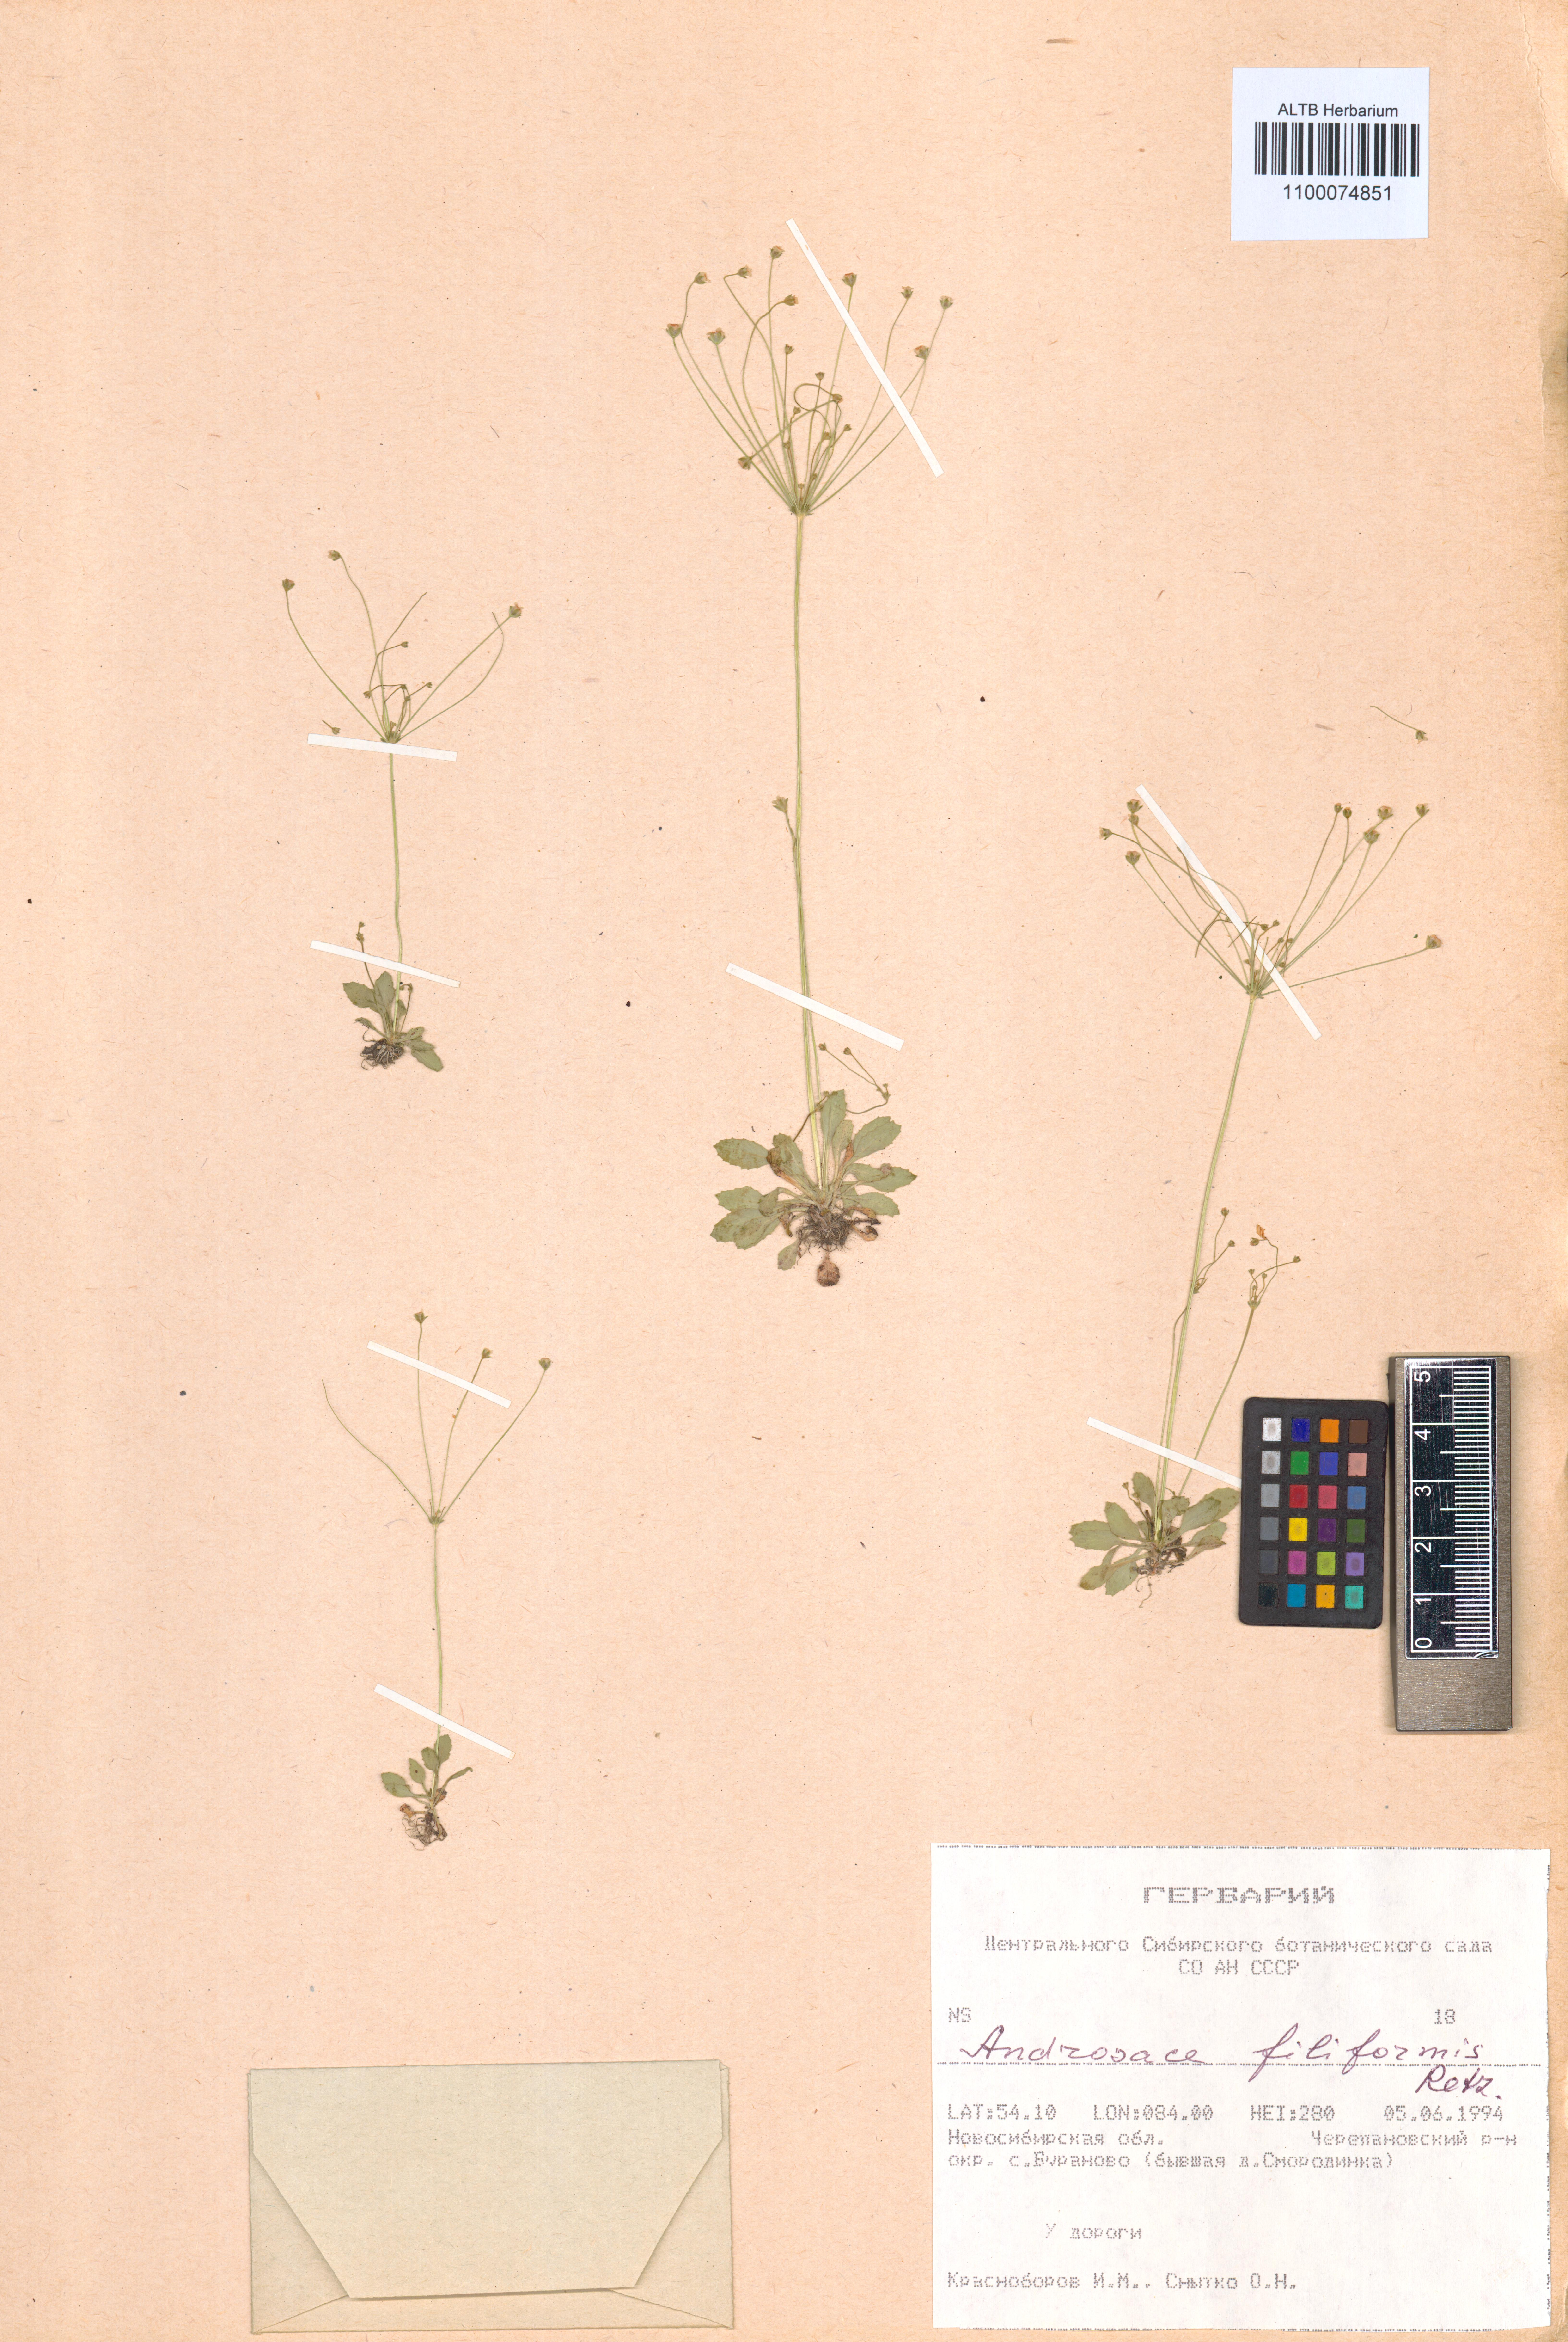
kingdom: Plantae
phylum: Tracheophyta
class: Magnoliopsida
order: Ericales
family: Primulaceae
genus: Androsace
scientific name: Androsace filiformis
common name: Filiform rock jasmine
